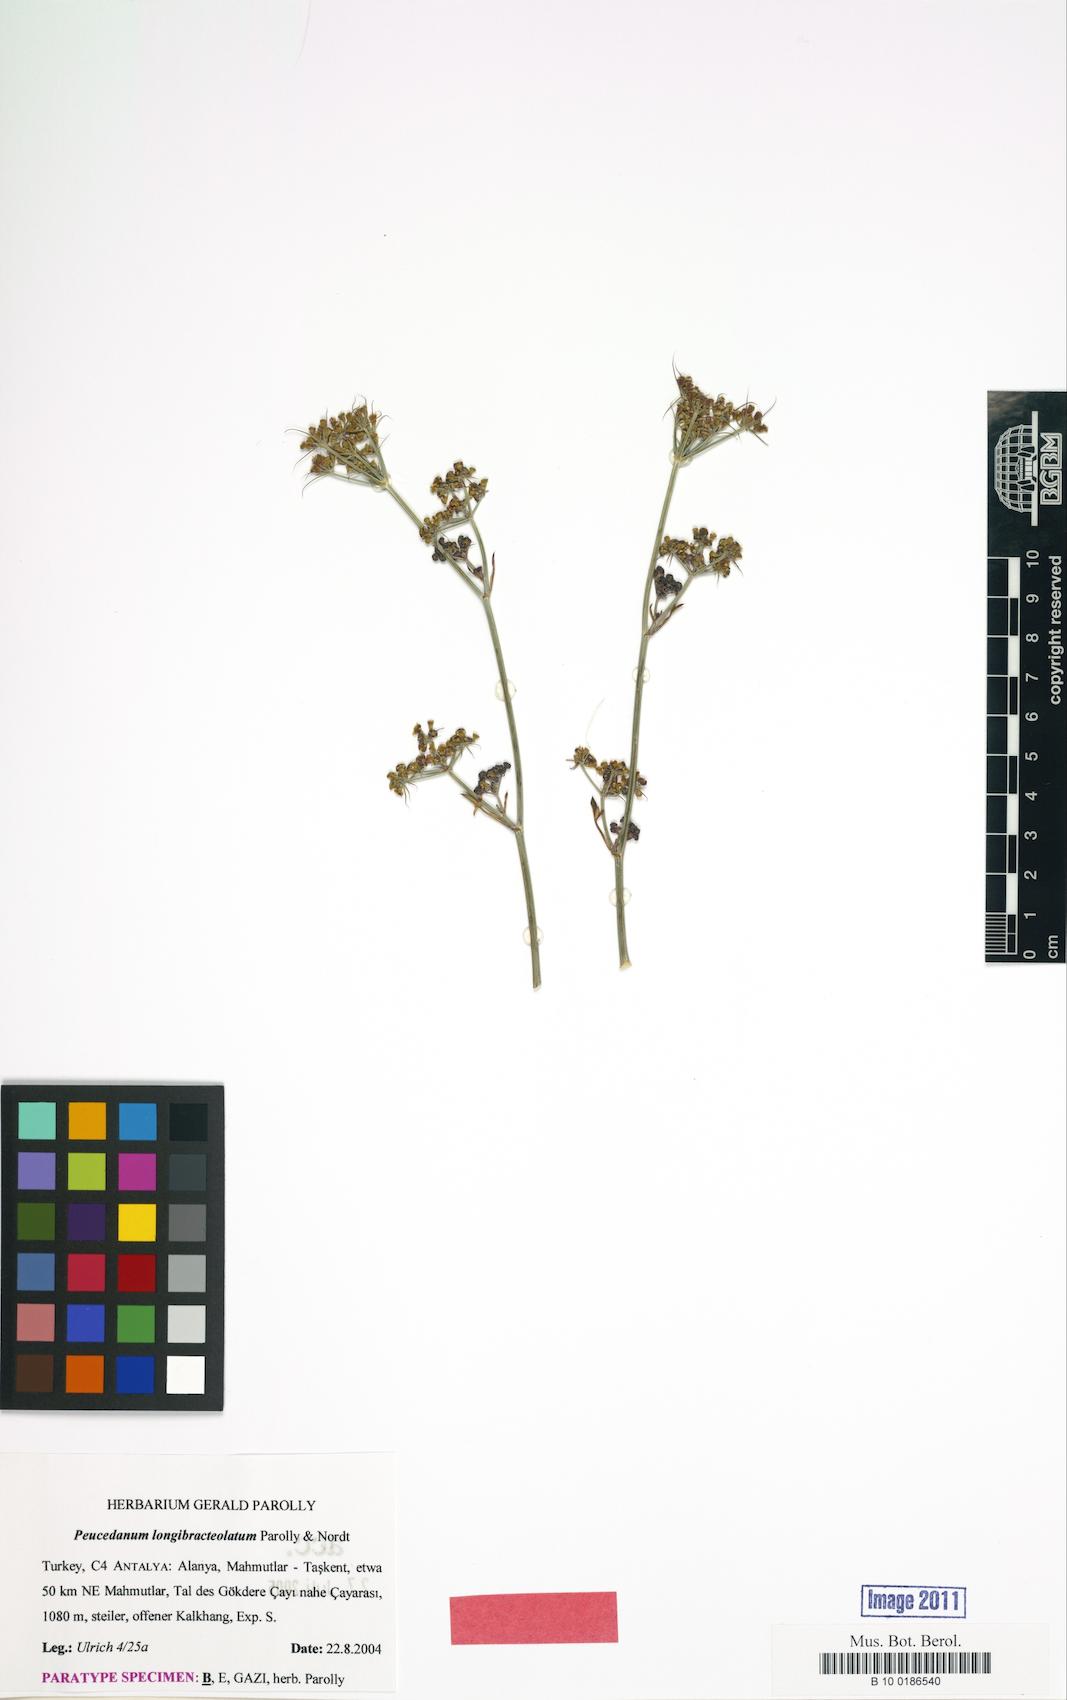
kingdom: Plantae
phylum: Tracheophyta
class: Magnoliopsida
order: Apiales
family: Apiaceae
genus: Dichoropetalum
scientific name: Dichoropetalum longibracteolatum
